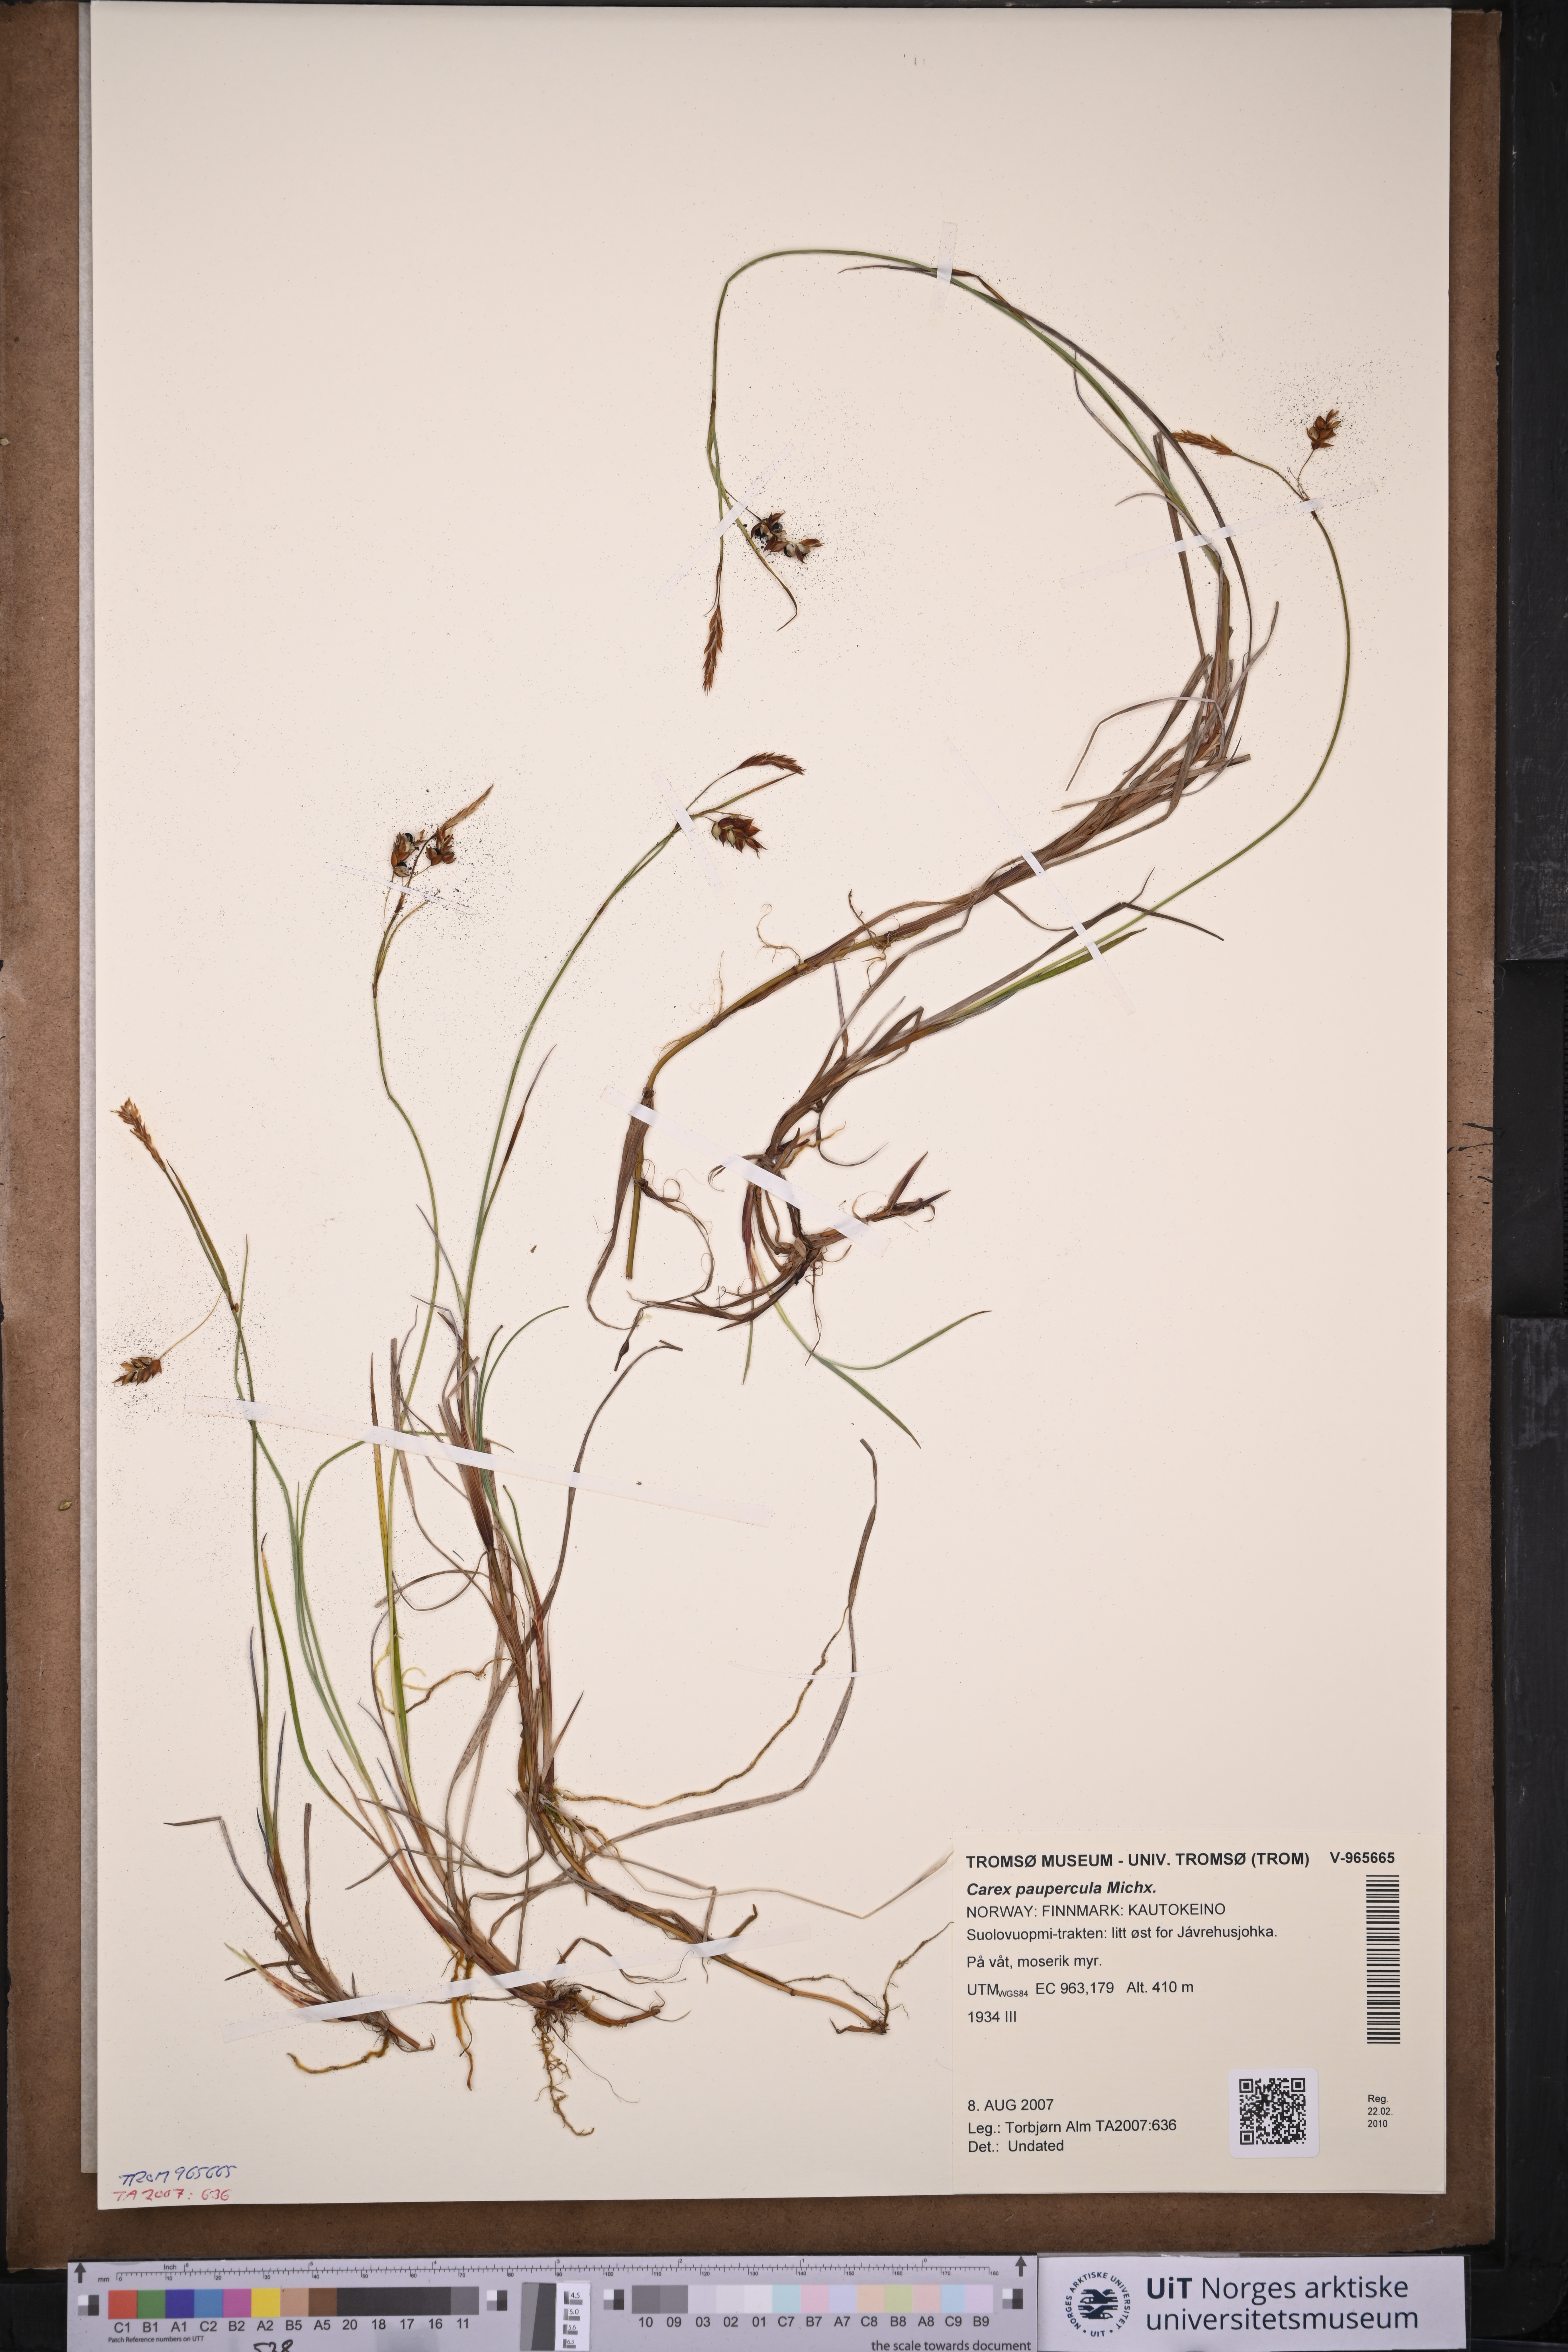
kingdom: Plantae
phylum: Tracheophyta
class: Liliopsida
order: Poales
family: Cyperaceae
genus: Carex
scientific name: Carex magellanica
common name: Bog sedge
